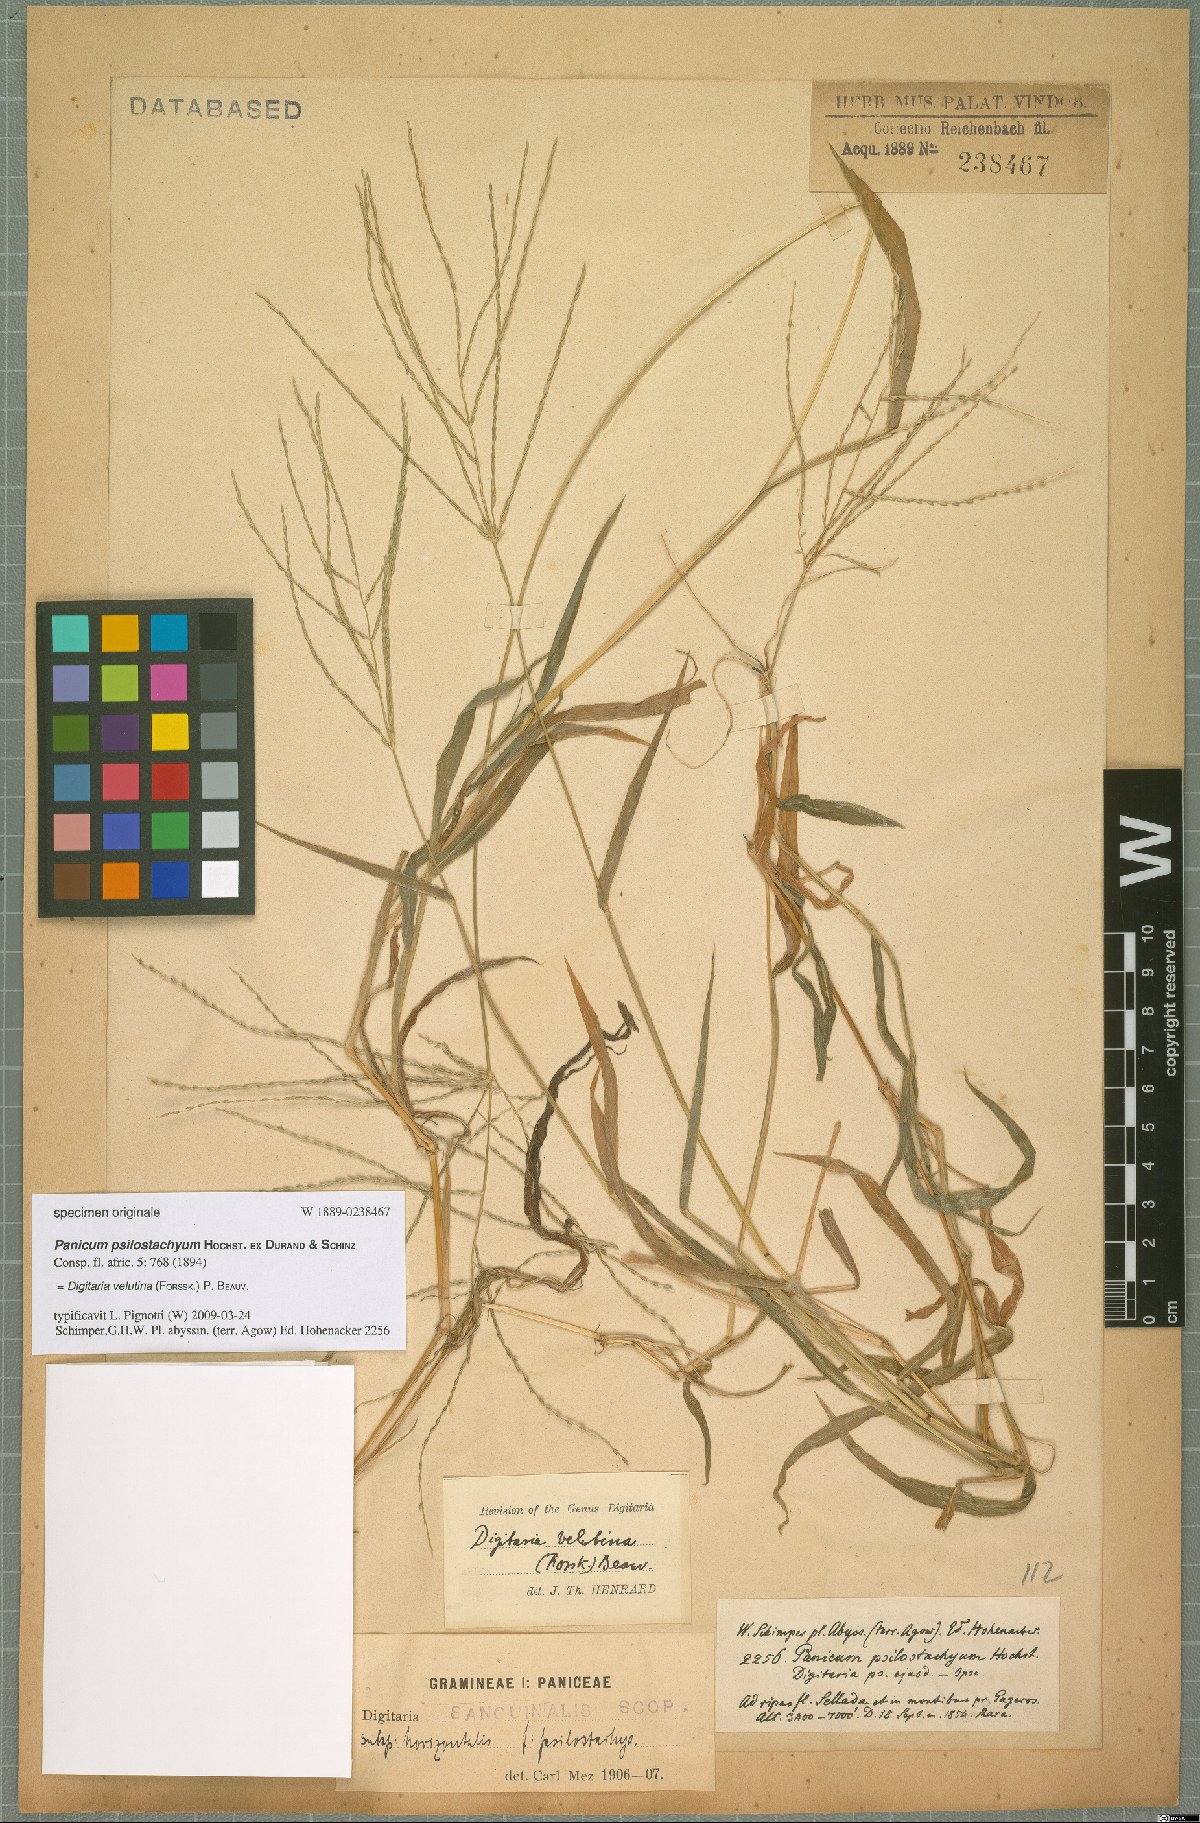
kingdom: Plantae
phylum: Tracheophyta
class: Liliopsida
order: Poales
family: Poaceae
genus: Digitaria
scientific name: Digitaria velutina
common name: Long-plume finger grass
